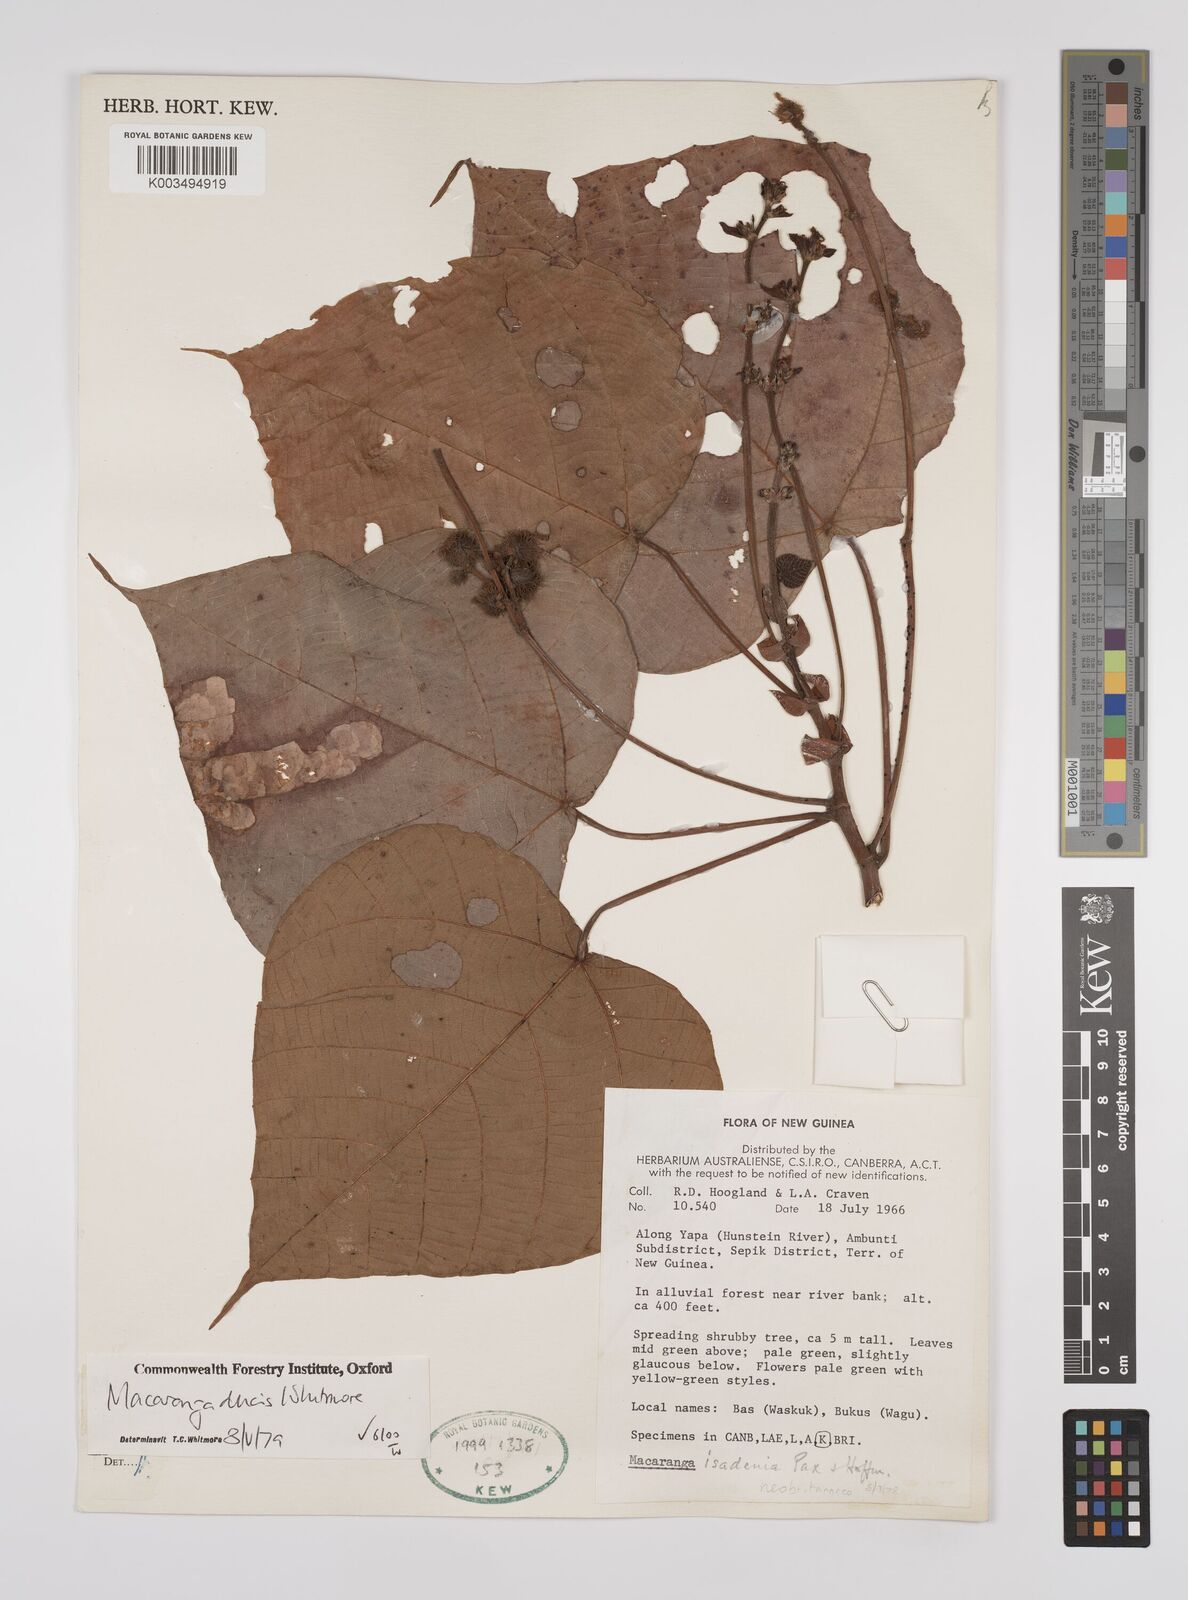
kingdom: Plantae
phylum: Tracheophyta
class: Magnoliopsida
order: Malpighiales
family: Euphorbiaceae
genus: Macaranga
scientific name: Macaranga ducis
